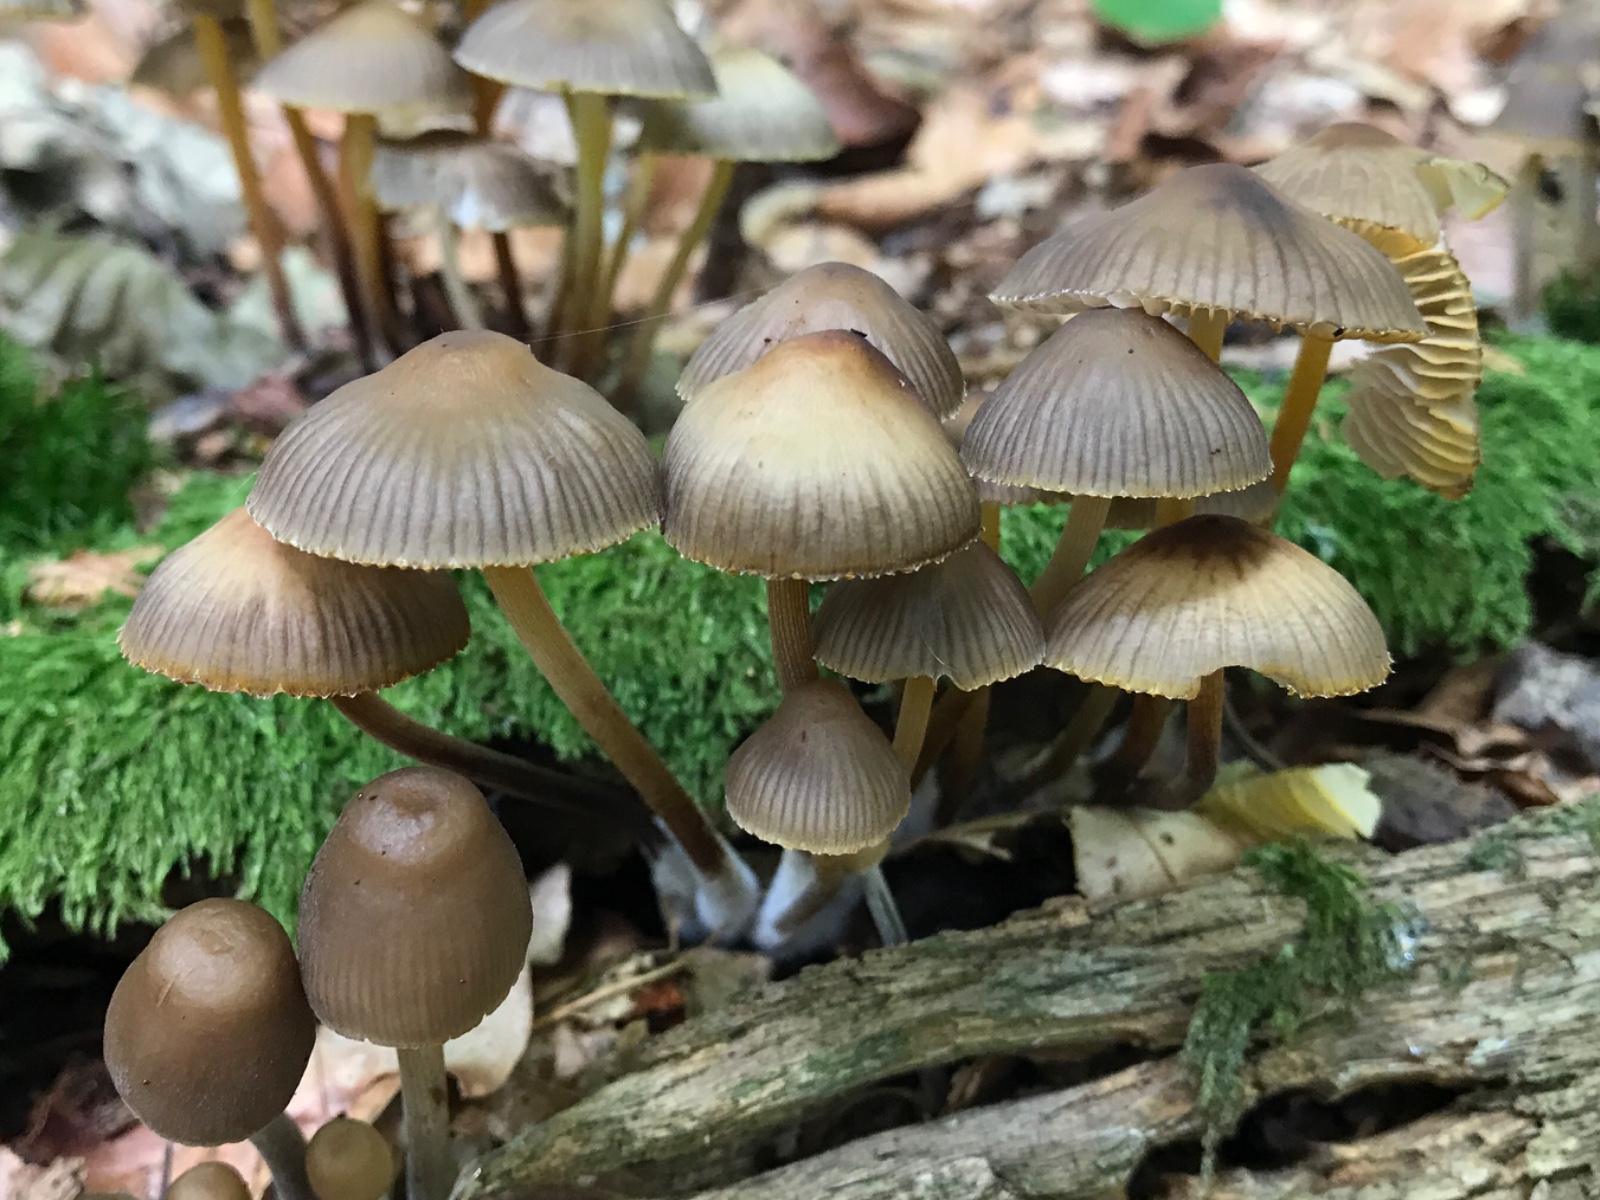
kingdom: Fungi
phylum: Basidiomycota
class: Agaricomycetes
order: Agaricales
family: Mycenaceae
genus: Mycena
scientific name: Mycena inclinata
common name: nikkende huesvamp
